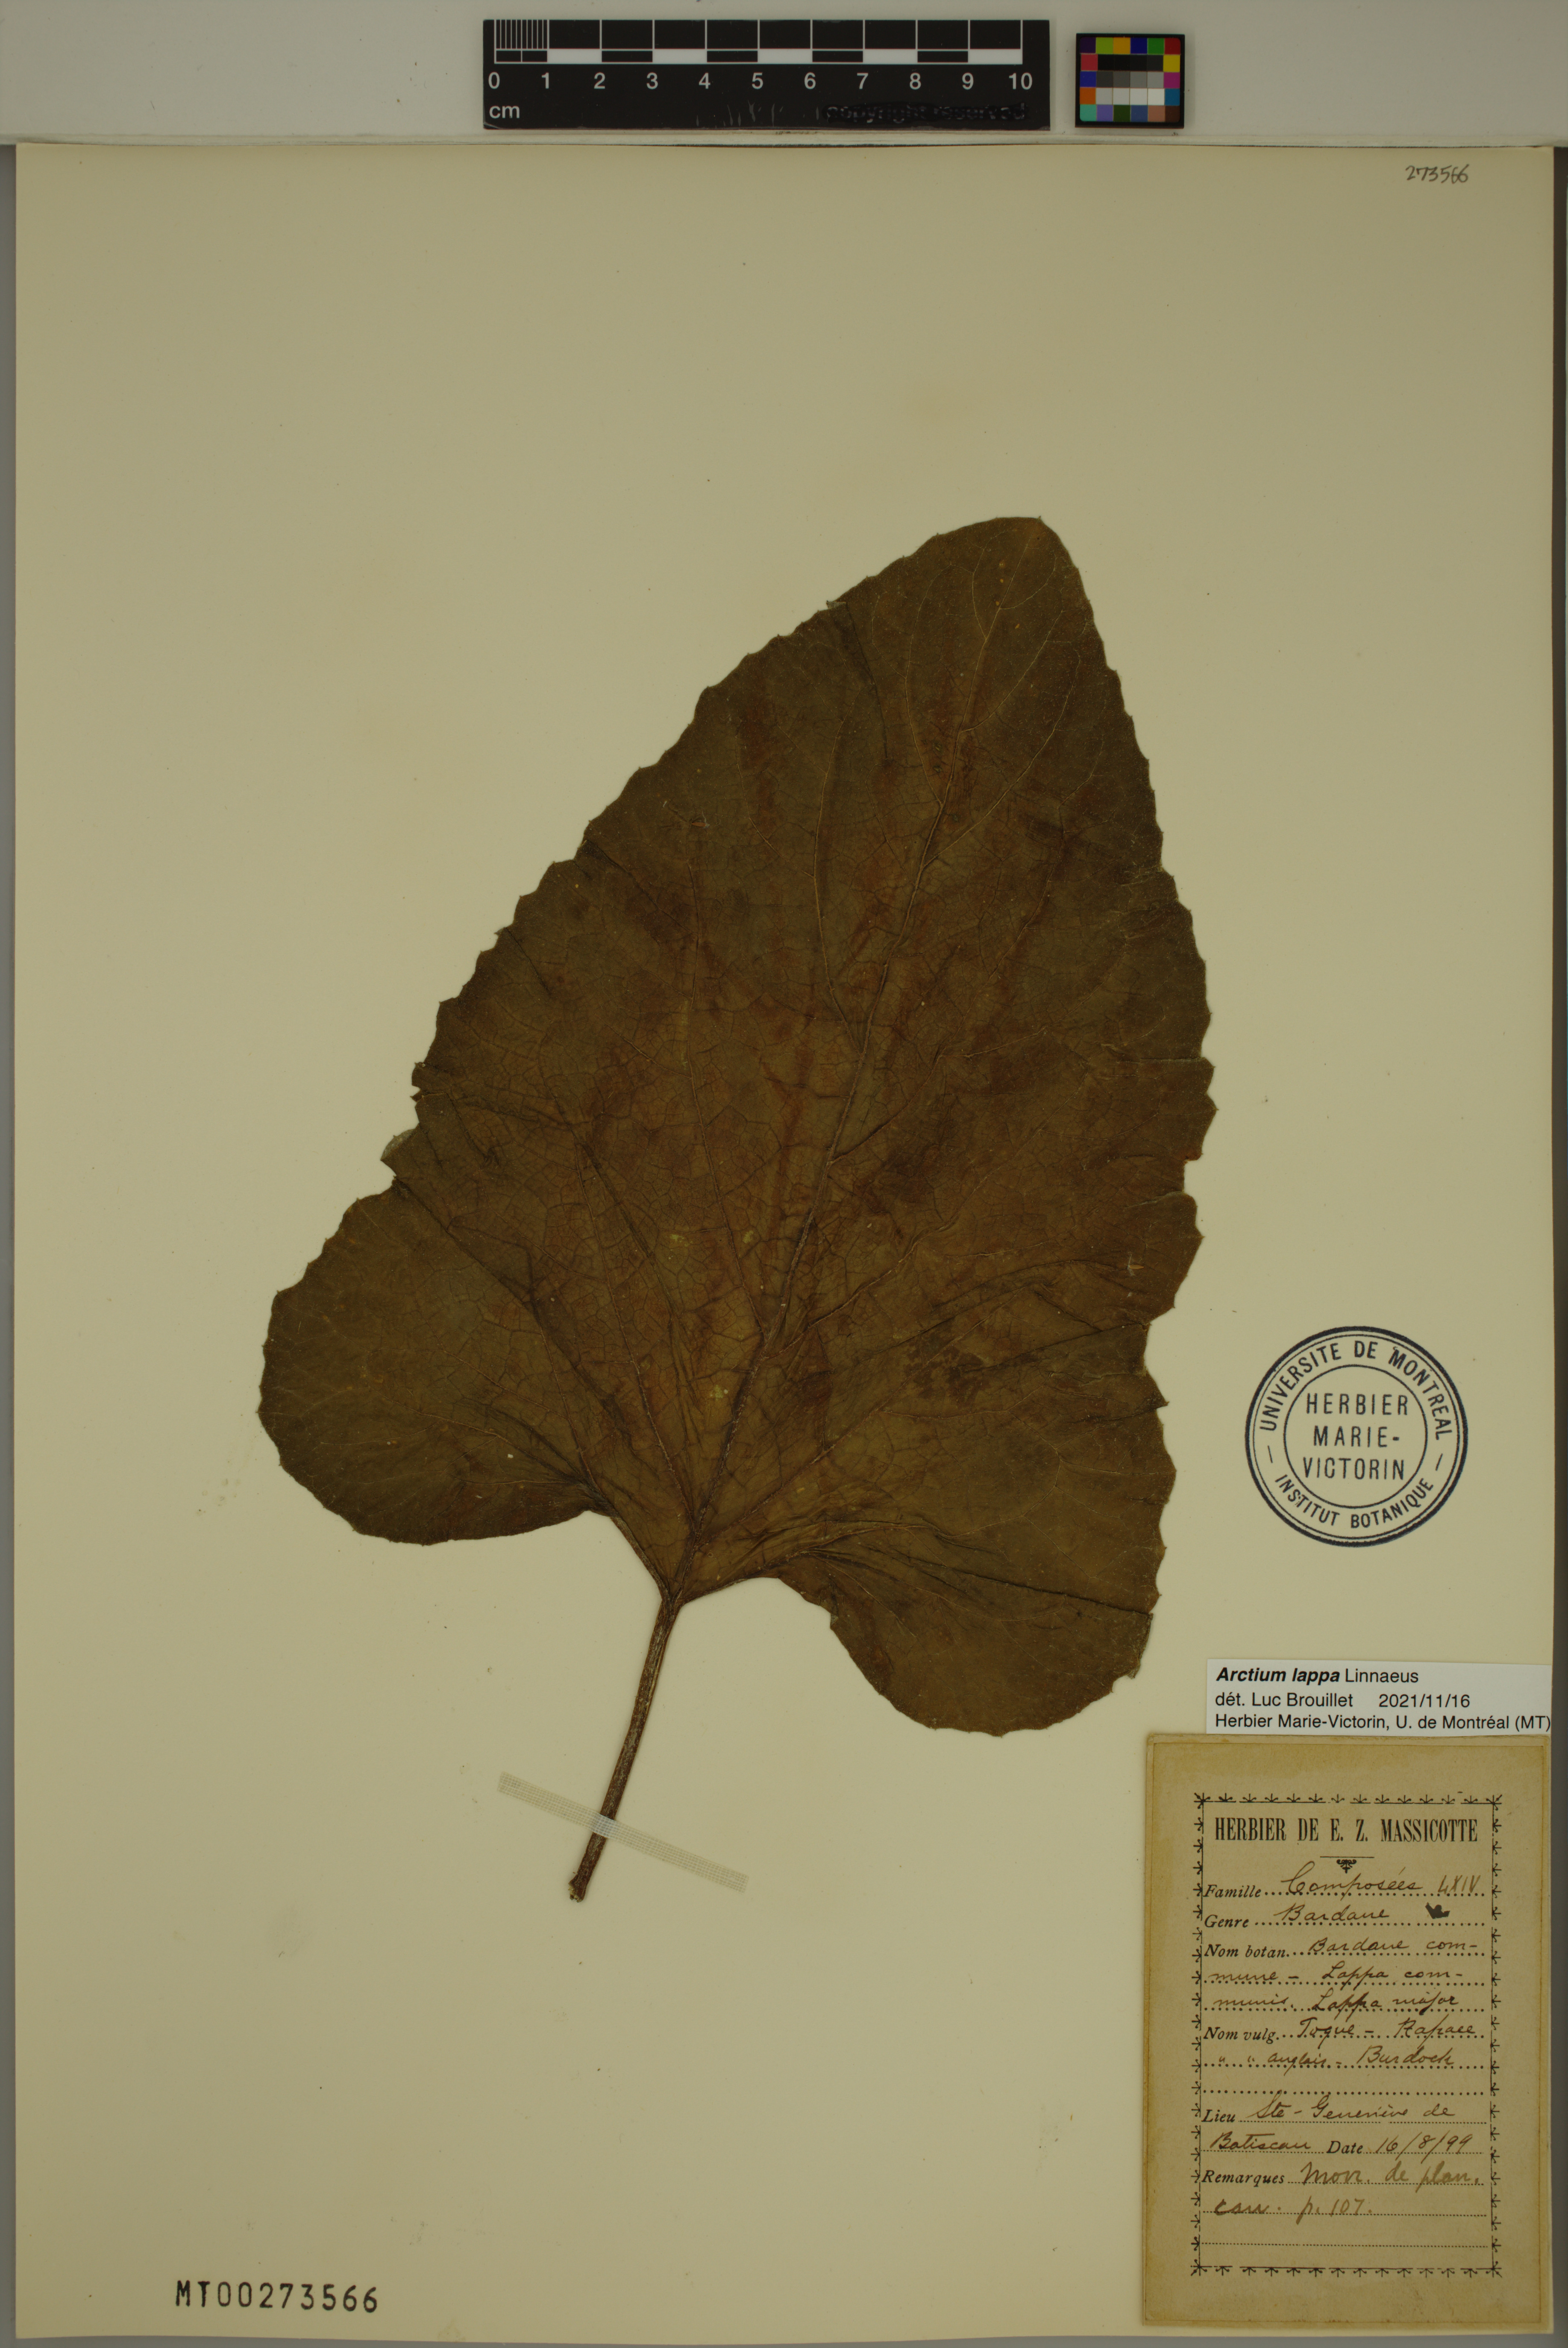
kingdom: Plantae
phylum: Tracheophyta
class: Magnoliopsida
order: Asterales
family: Asteraceae
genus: Arctium
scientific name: Arctium lappa
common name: Greater burdock
